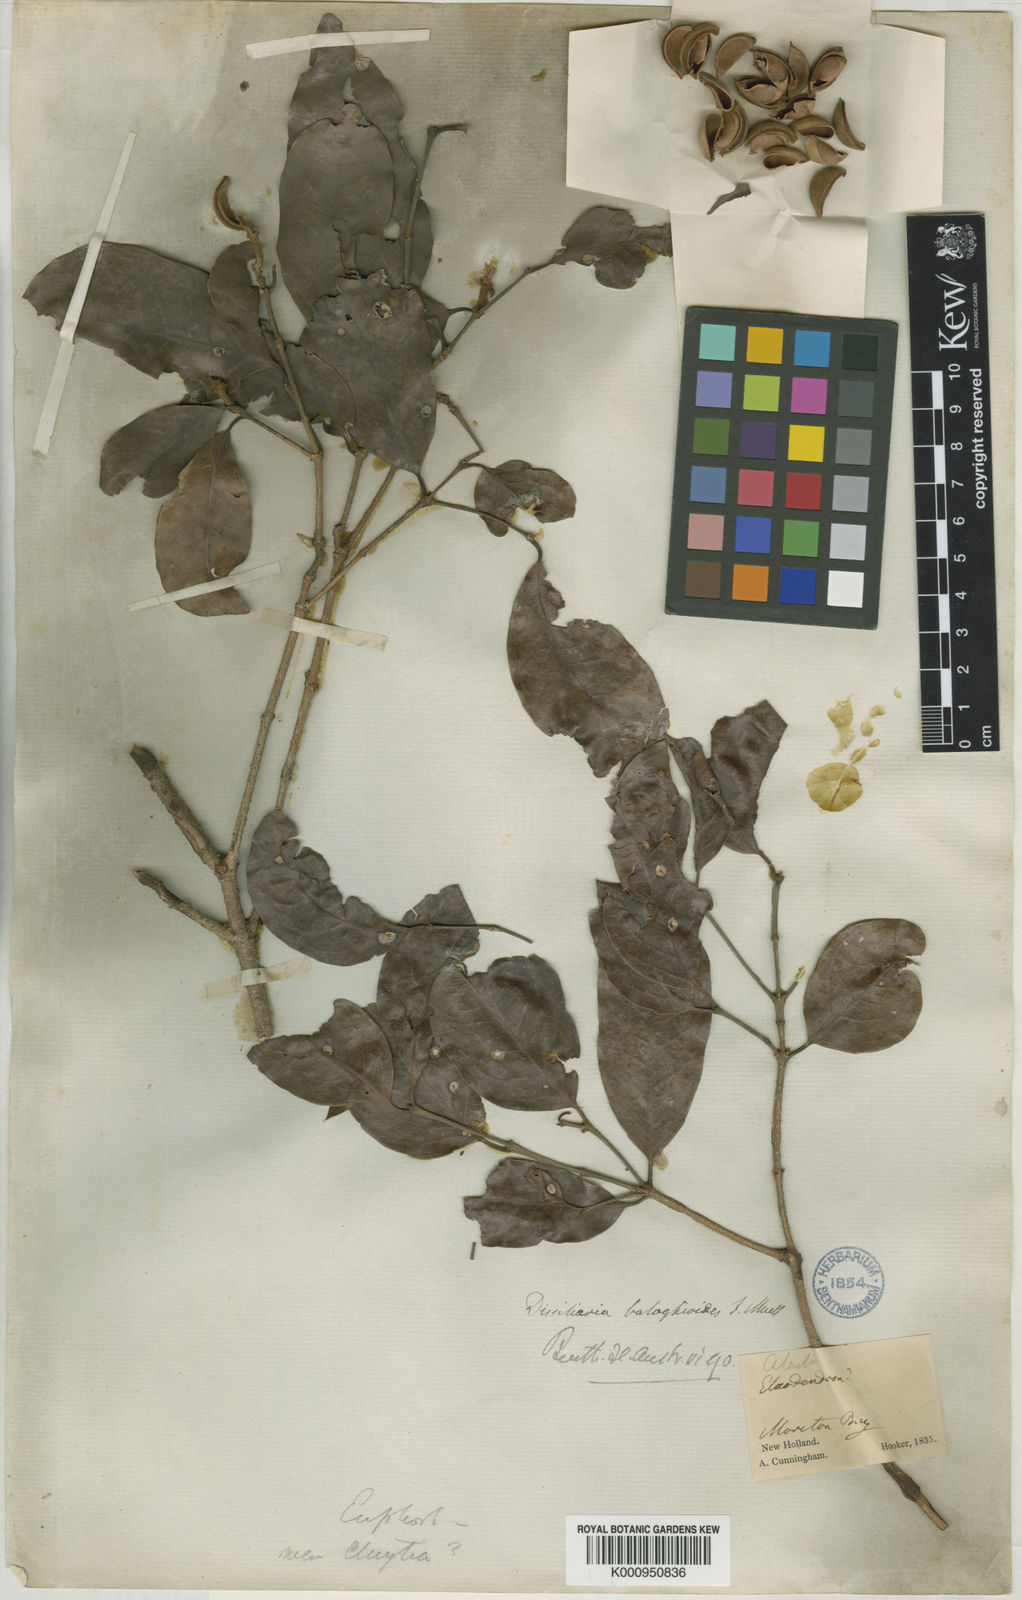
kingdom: Plantae
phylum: Tracheophyta
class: Magnoliopsida
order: Malpighiales
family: Picrodendraceae
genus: Dissiliaria
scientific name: Dissiliaria baloghioides
